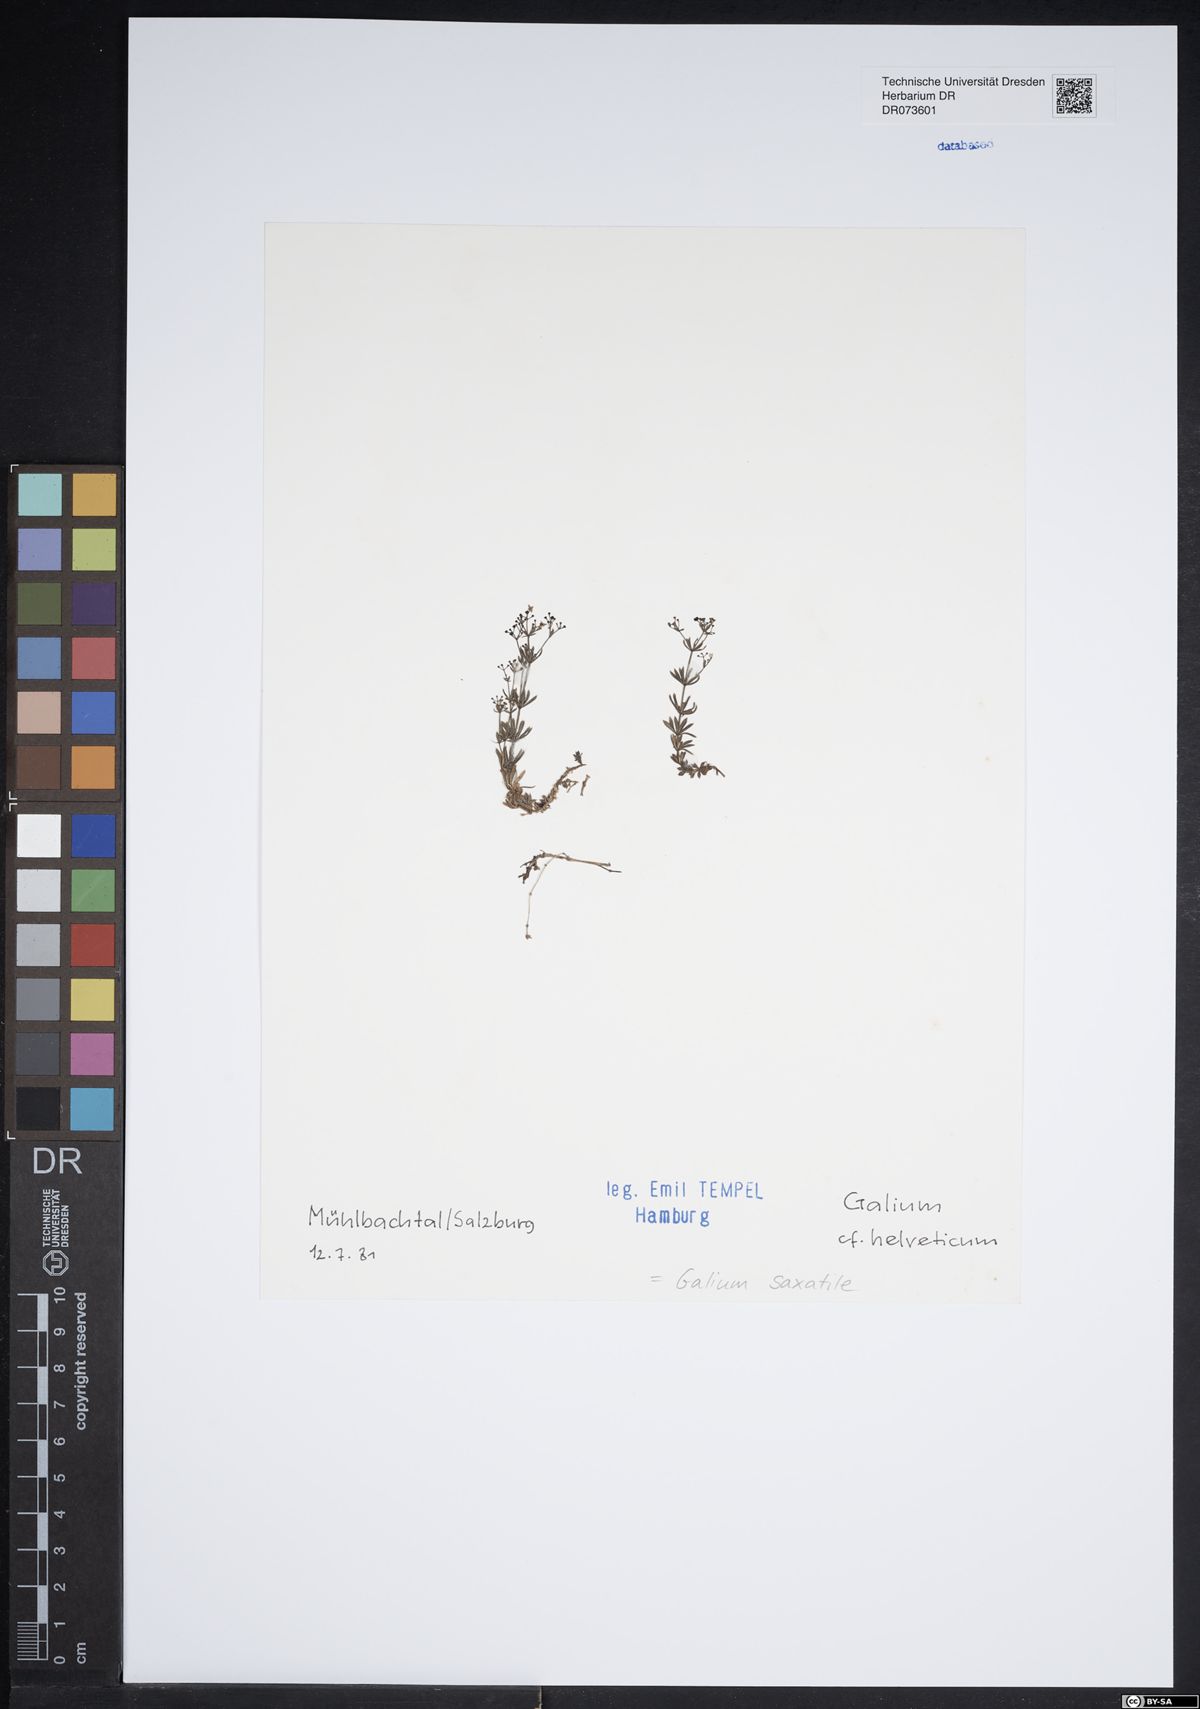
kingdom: Plantae
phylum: Tracheophyta
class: Magnoliopsida
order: Gentianales
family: Rubiaceae
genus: Galium
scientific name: Galium saxatile
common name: Heath bedstraw
